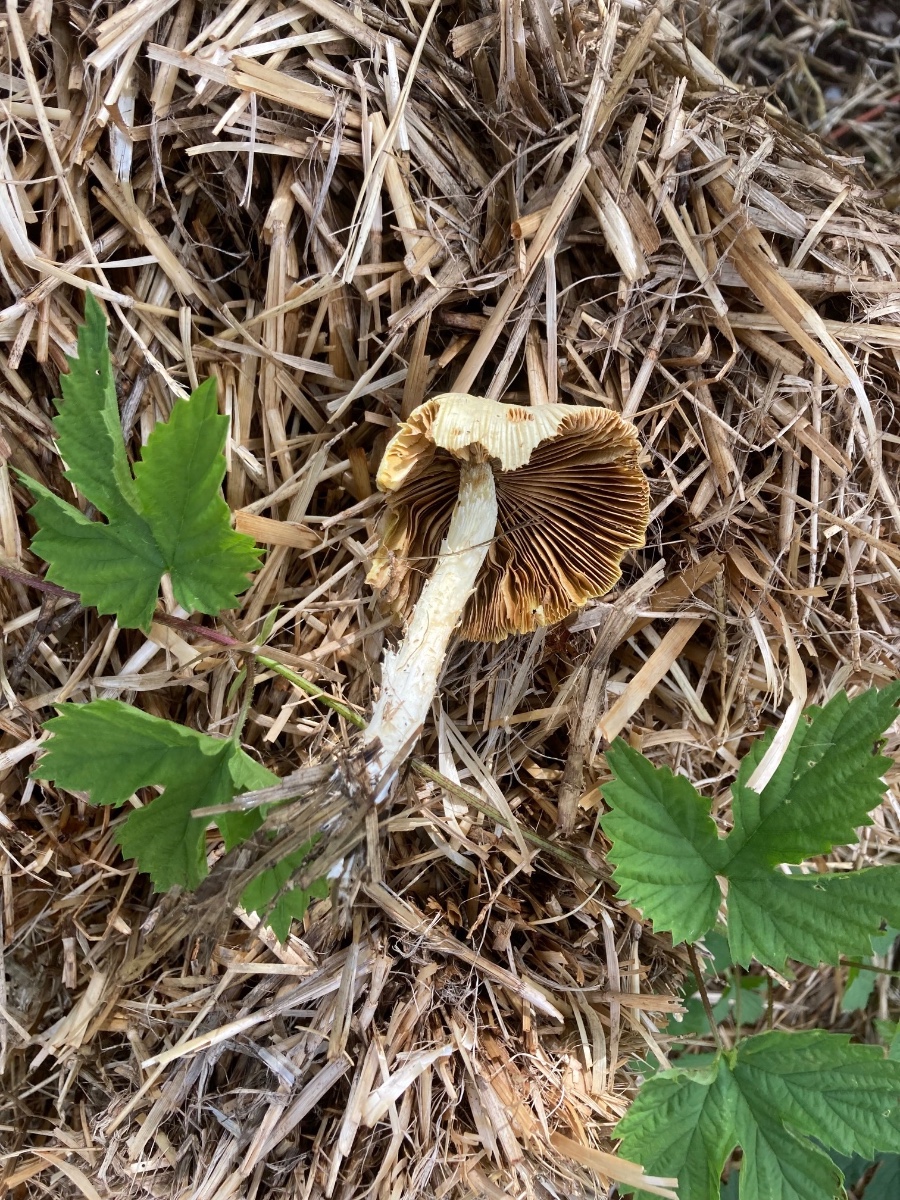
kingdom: Fungi
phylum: Basidiomycota
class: Agaricomycetes
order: Agaricales
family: Bolbitiaceae
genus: Bolbitius
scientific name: Bolbitius titubans
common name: almindelig gulhat
